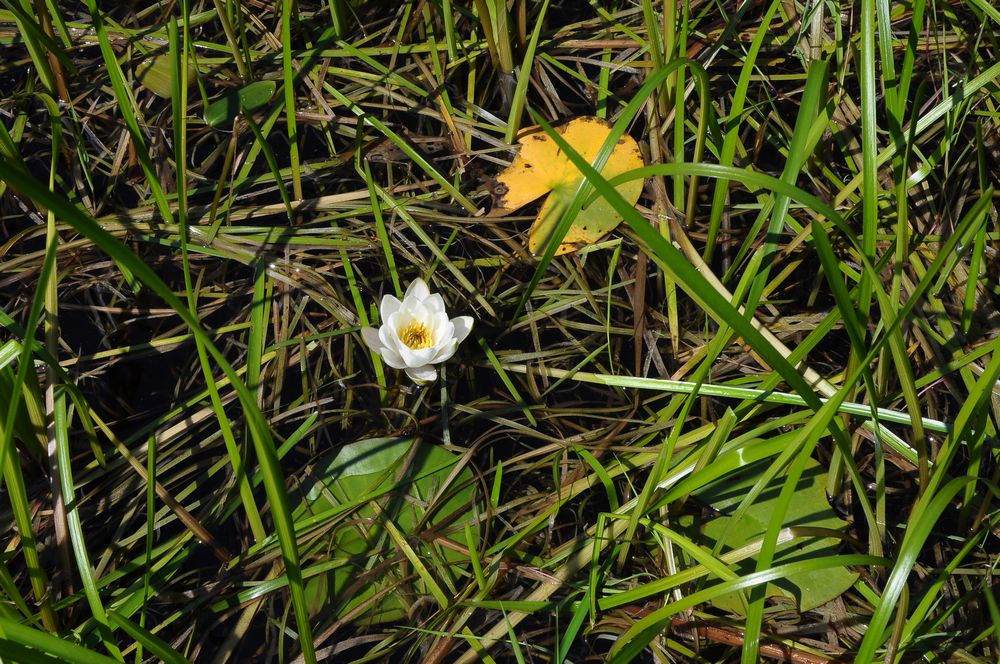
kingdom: Plantae
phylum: Tracheophyta
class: Magnoliopsida
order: Nymphaeales
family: Nymphaeaceae
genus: Nymphaea
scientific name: Nymphaea candida
